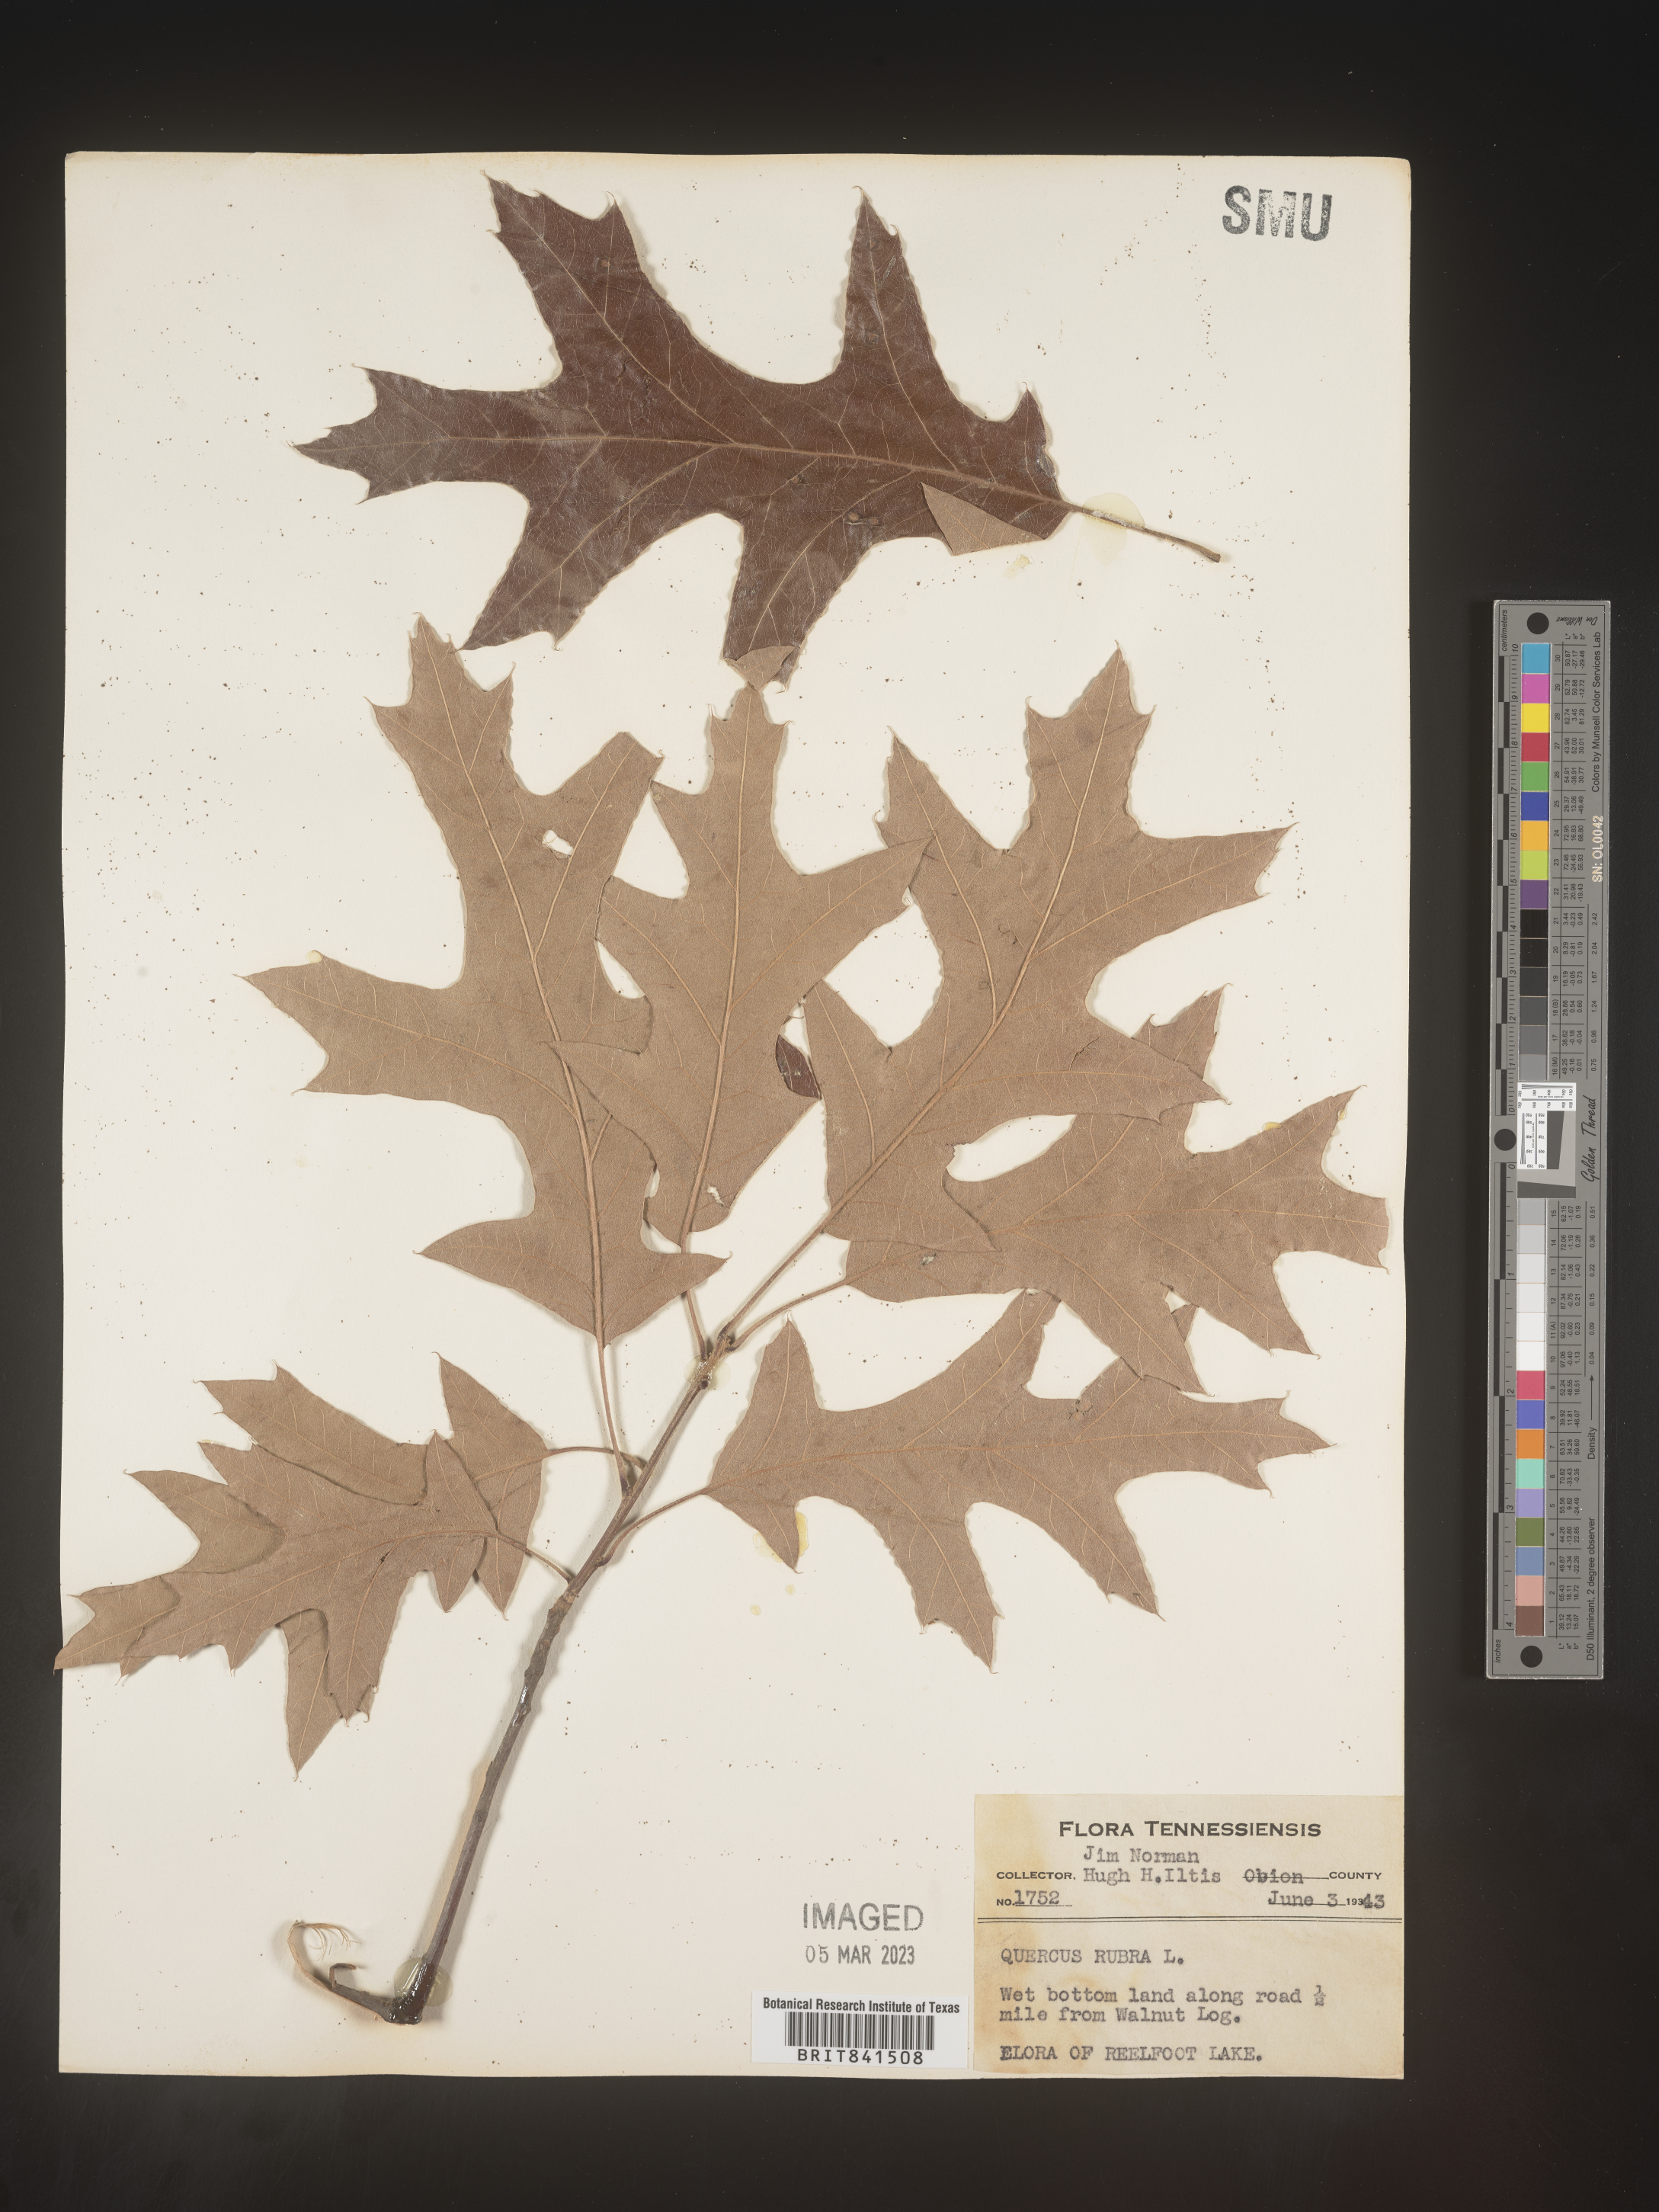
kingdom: Plantae
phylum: Tracheophyta
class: Magnoliopsida
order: Fagales
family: Fagaceae
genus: Quercus
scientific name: Quercus rubra
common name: Red oak
